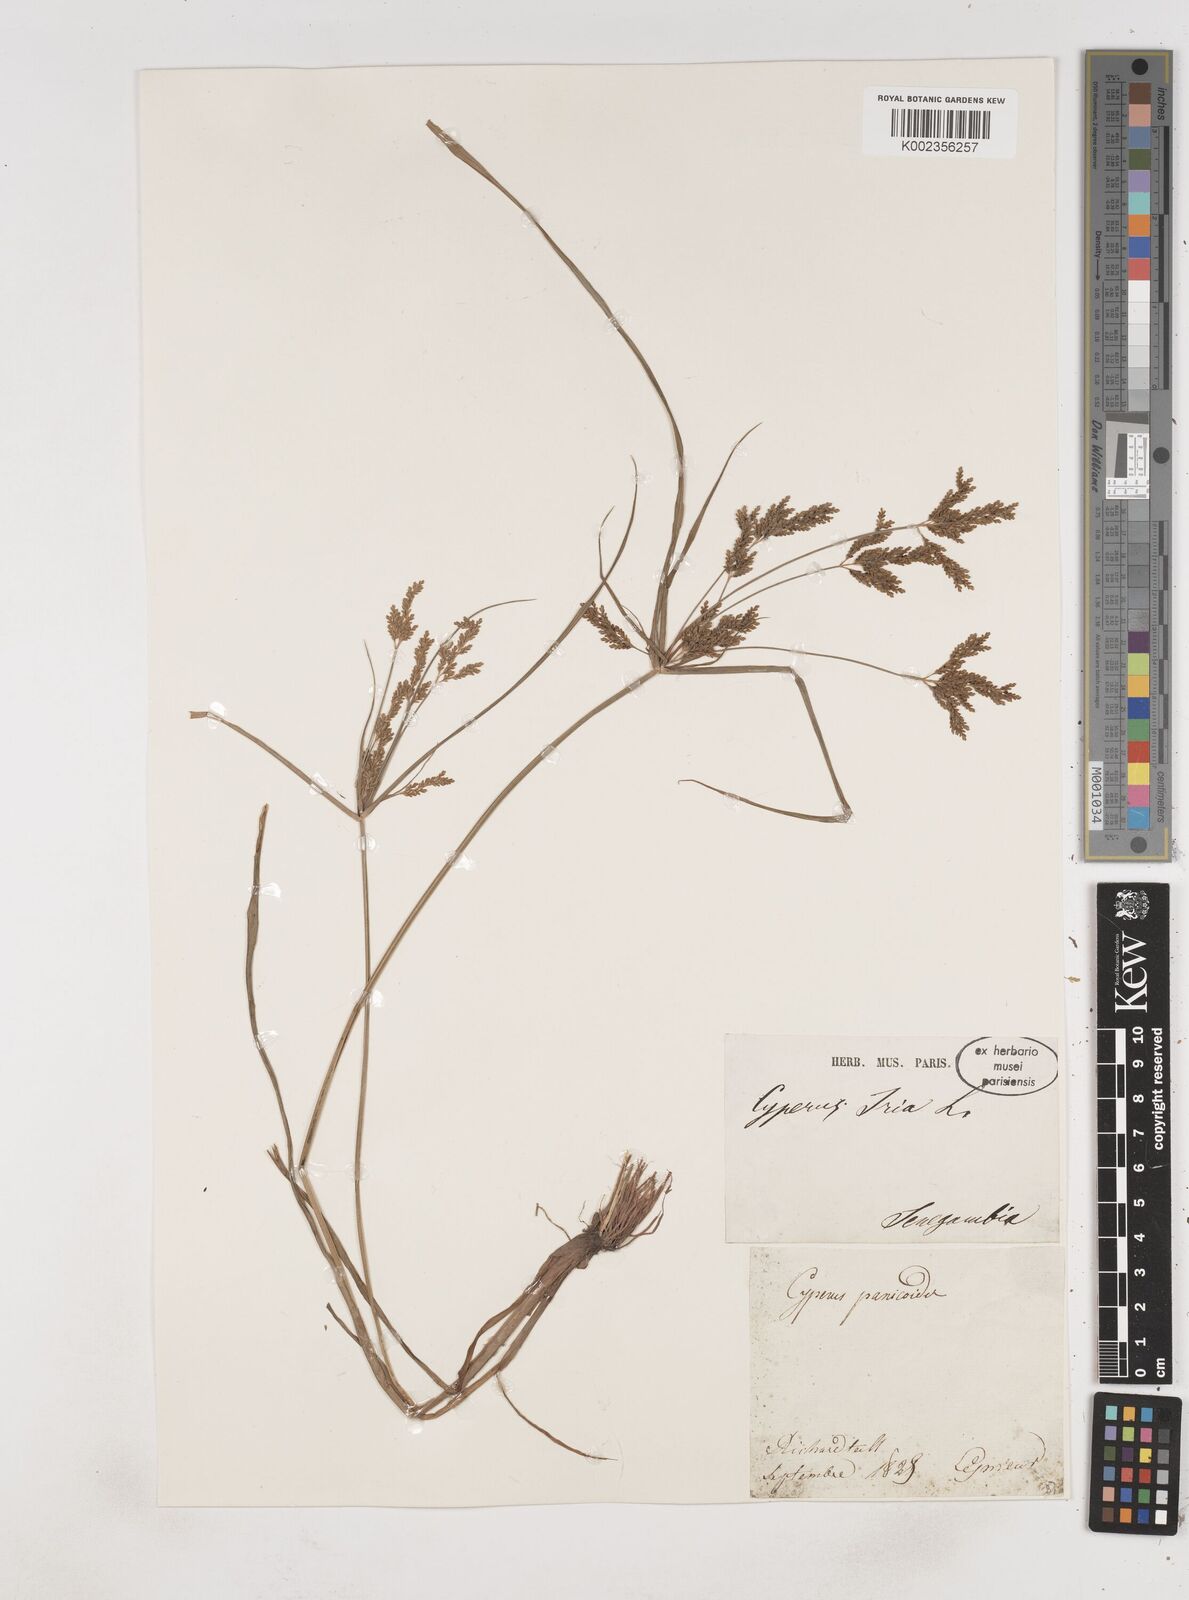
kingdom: Plantae
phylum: Tracheophyta
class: Liliopsida
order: Poales
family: Cyperaceae
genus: Cyperus
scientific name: Cyperus iria
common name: Ricefield flatsedge
